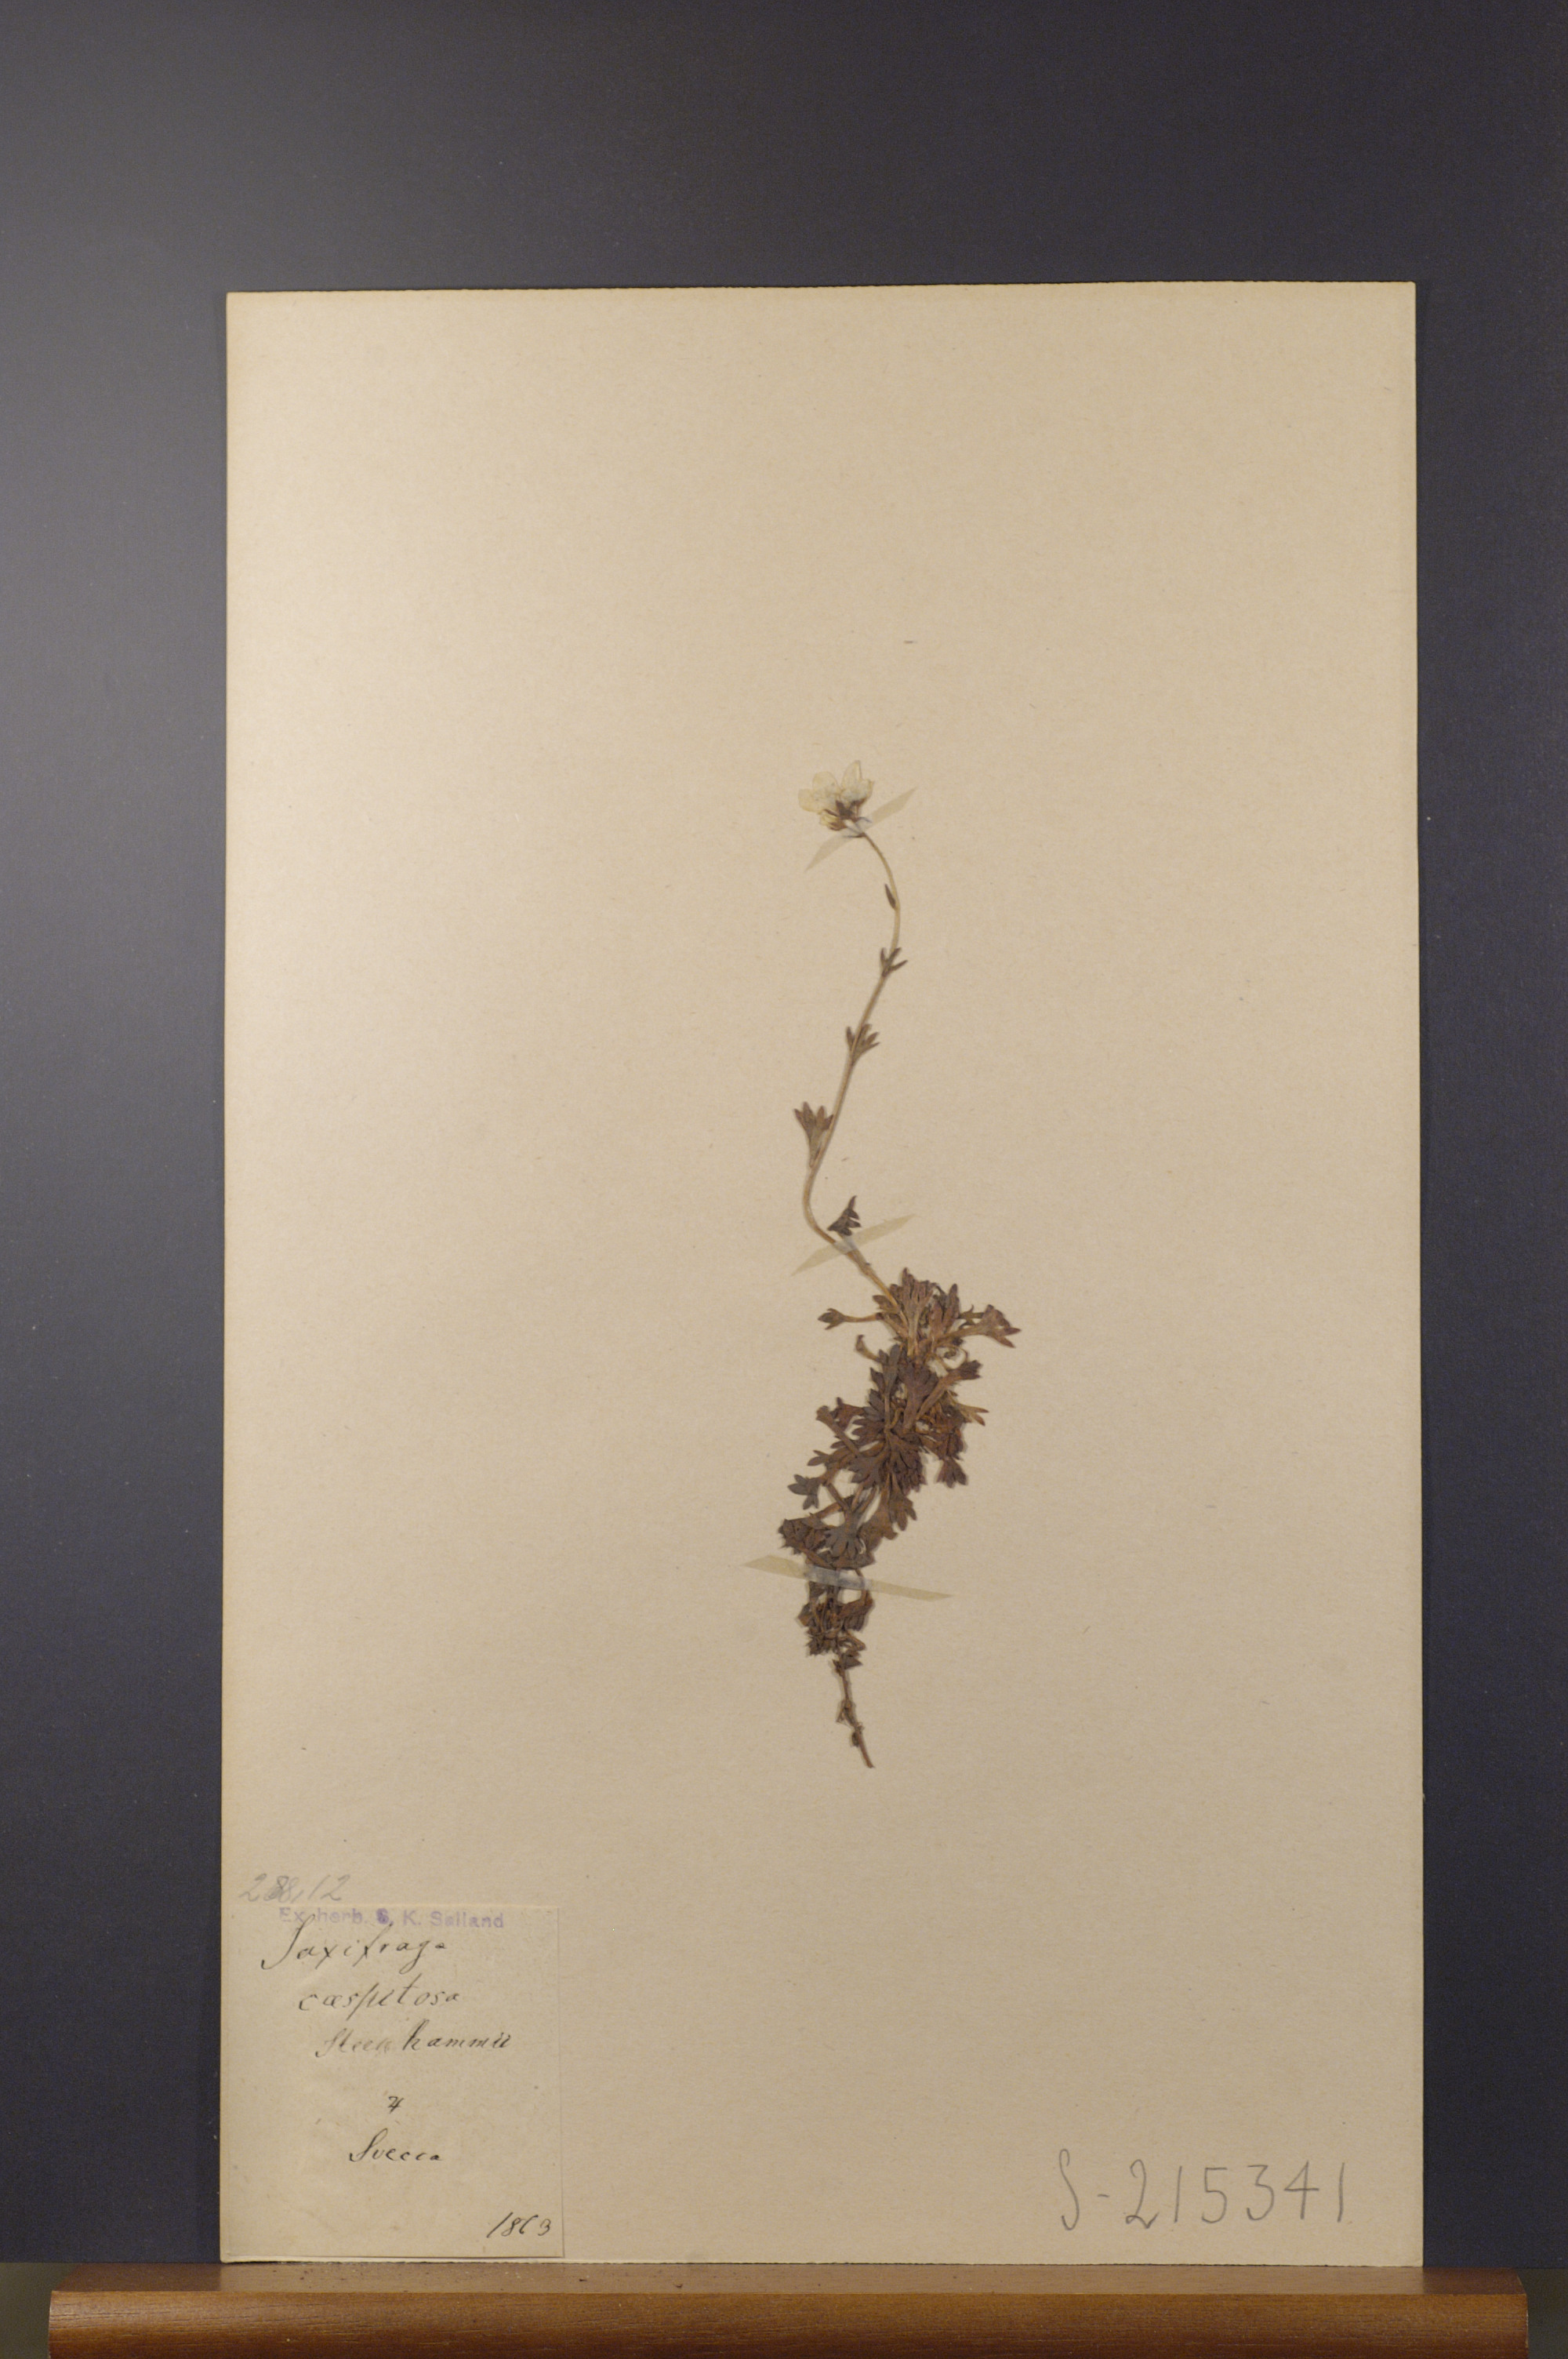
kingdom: Plantae
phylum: Tracheophyta
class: Magnoliopsida
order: Saxifragales
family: Saxifragaceae
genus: Saxifraga
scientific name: Saxifraga cespitosa
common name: Tufted saxifrage
